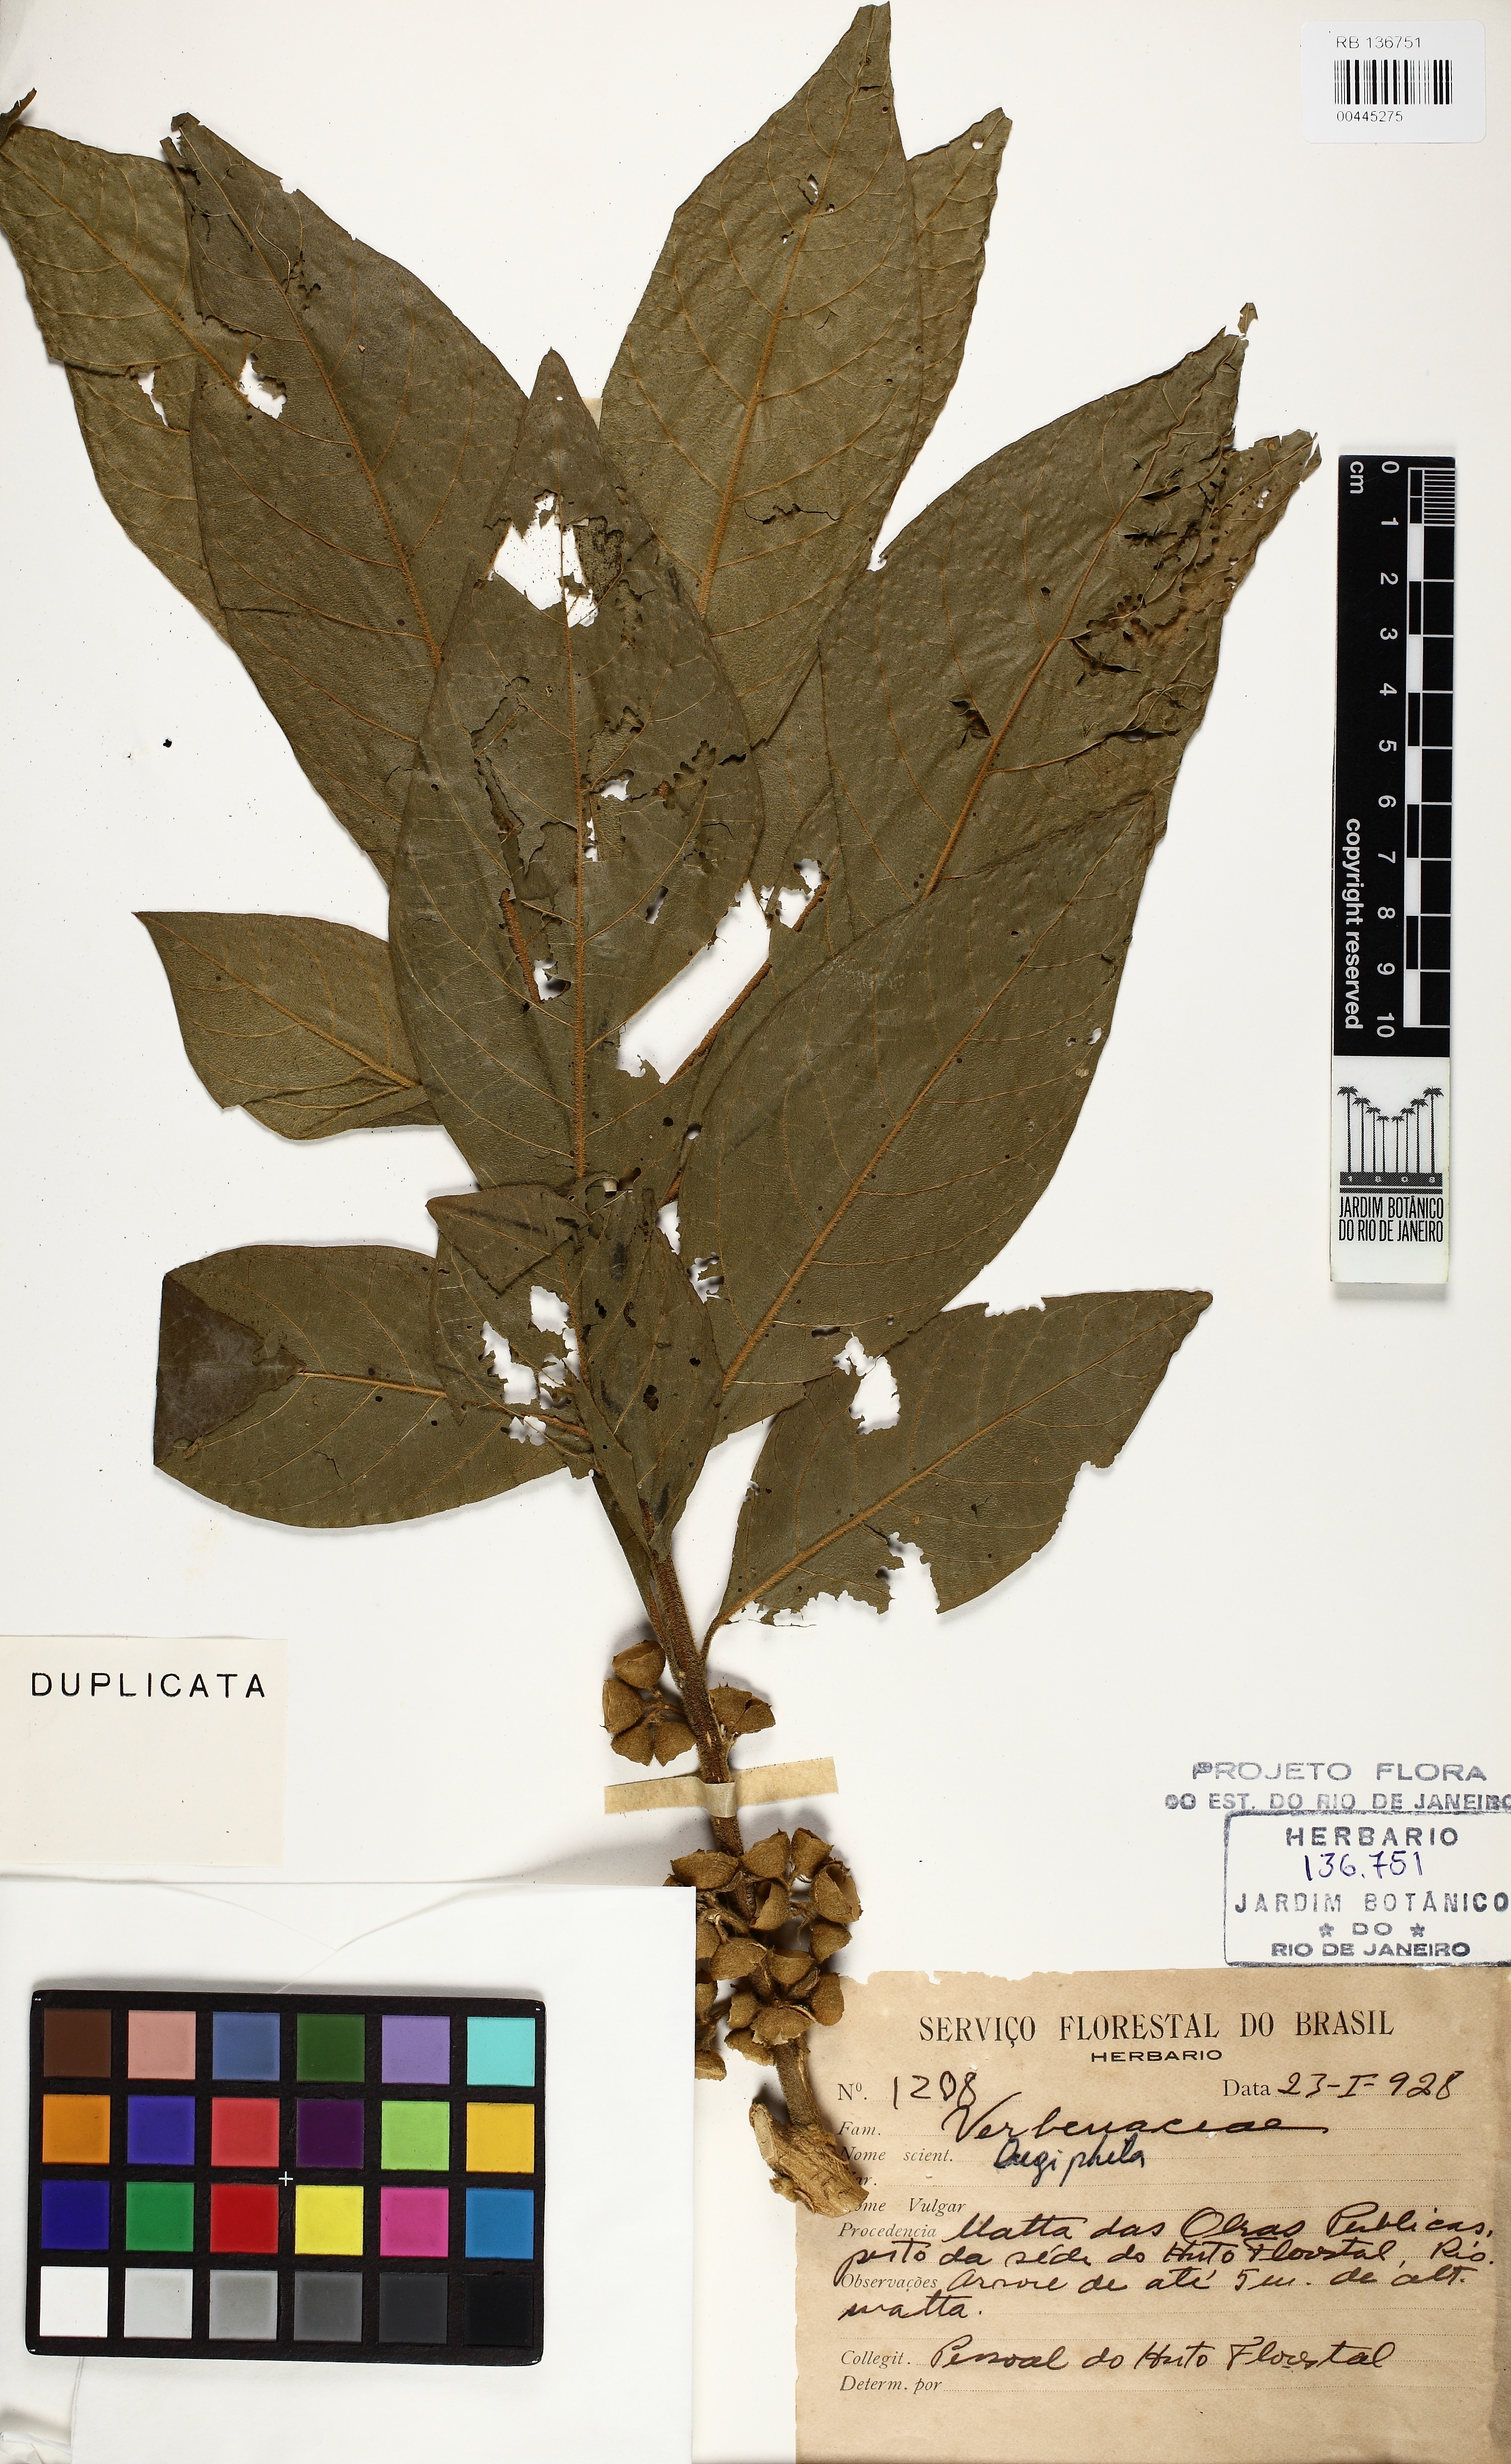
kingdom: Plantae
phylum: Tracheophyta
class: Magnoliopsida
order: Lamiales
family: Lamiaceae
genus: Aegiphila
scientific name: Aegiphila
